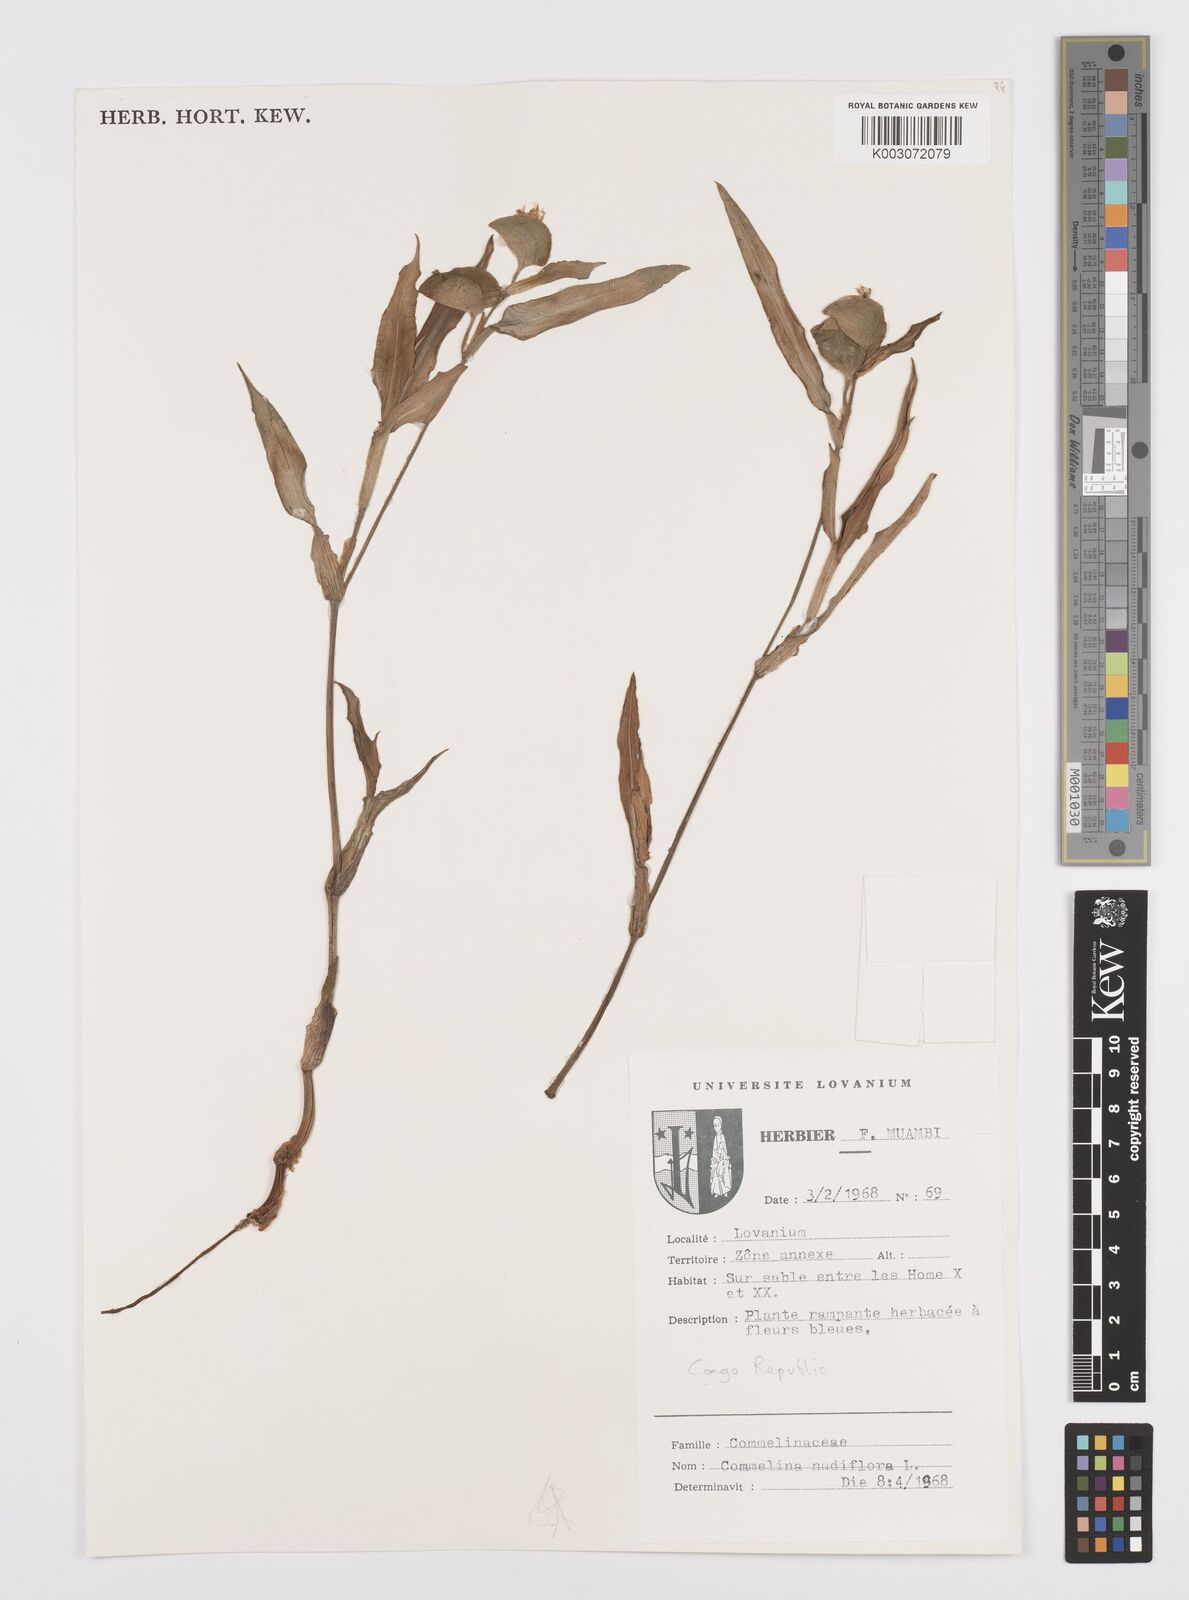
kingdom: Plantae
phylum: Tracheophyta
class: Liliopsida
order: Commelinales
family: Commelinaceae
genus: Commelina
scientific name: Commelina diffusa
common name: Climbing dayflower
